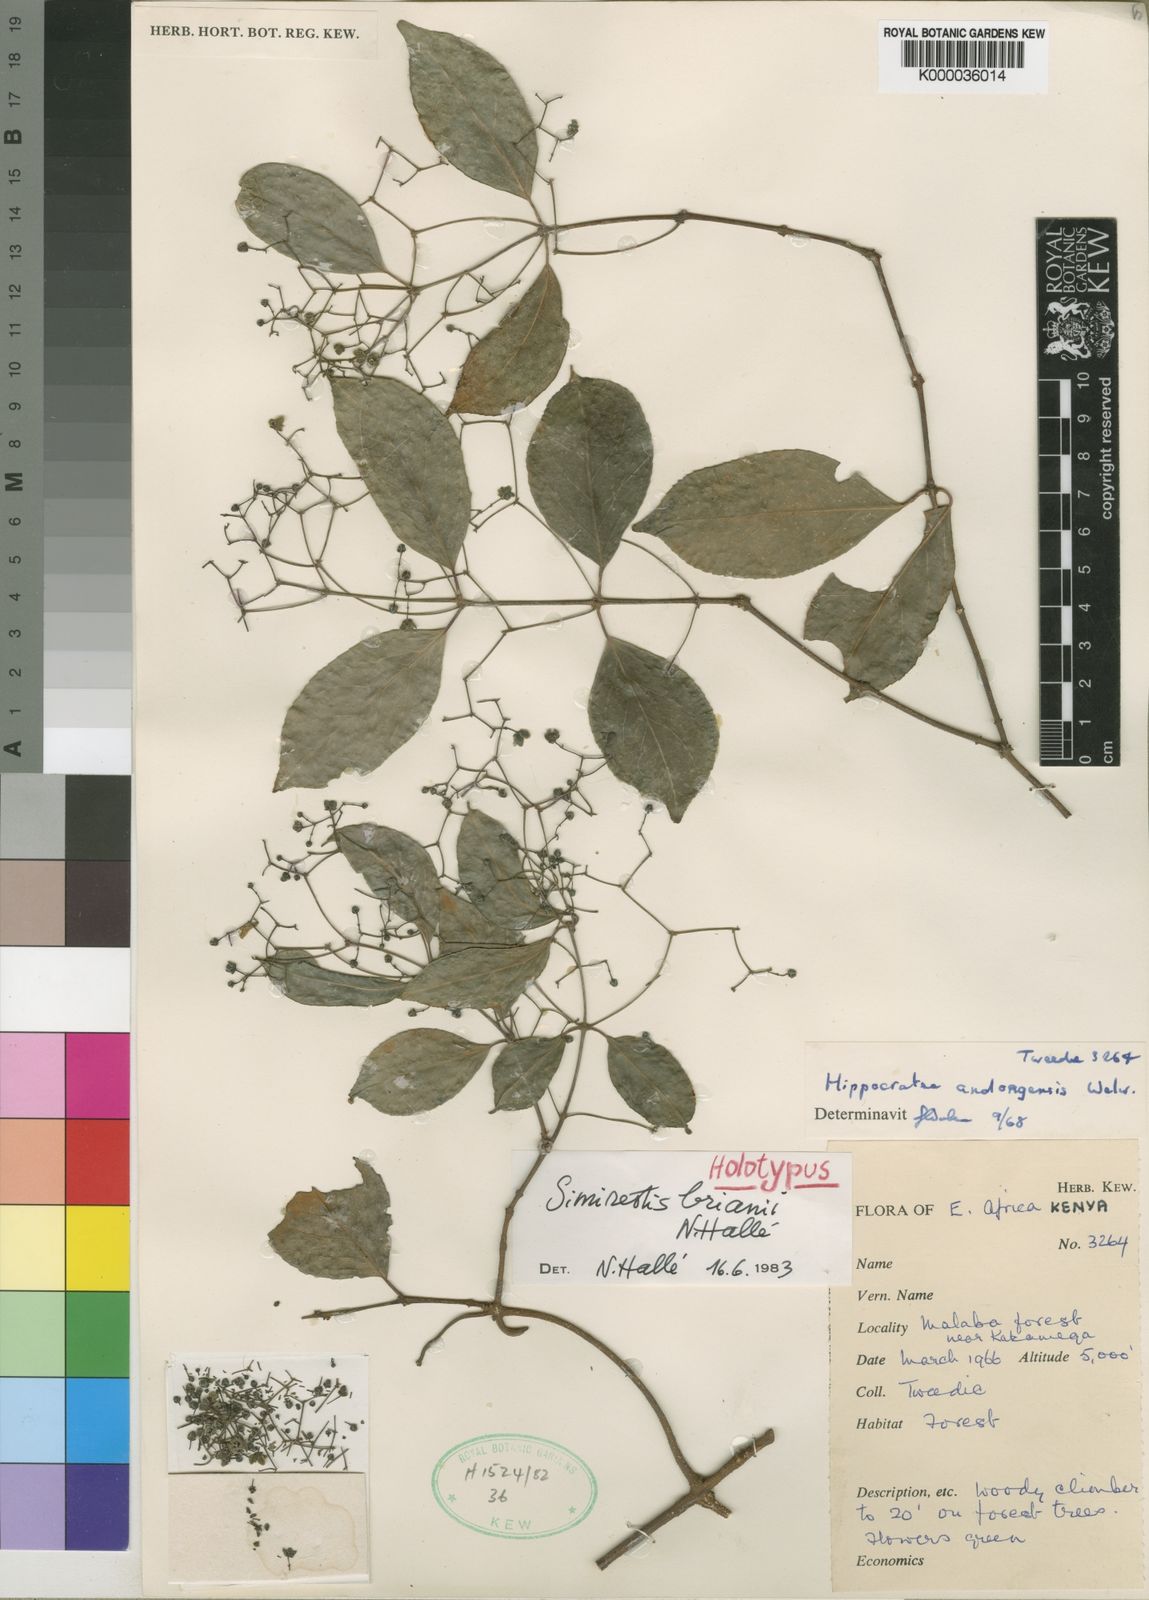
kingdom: Plantae
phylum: Tracheophyta
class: Magnoliopsida
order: Celastrales
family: Celastraceae
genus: Pristimera
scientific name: Pristimera
